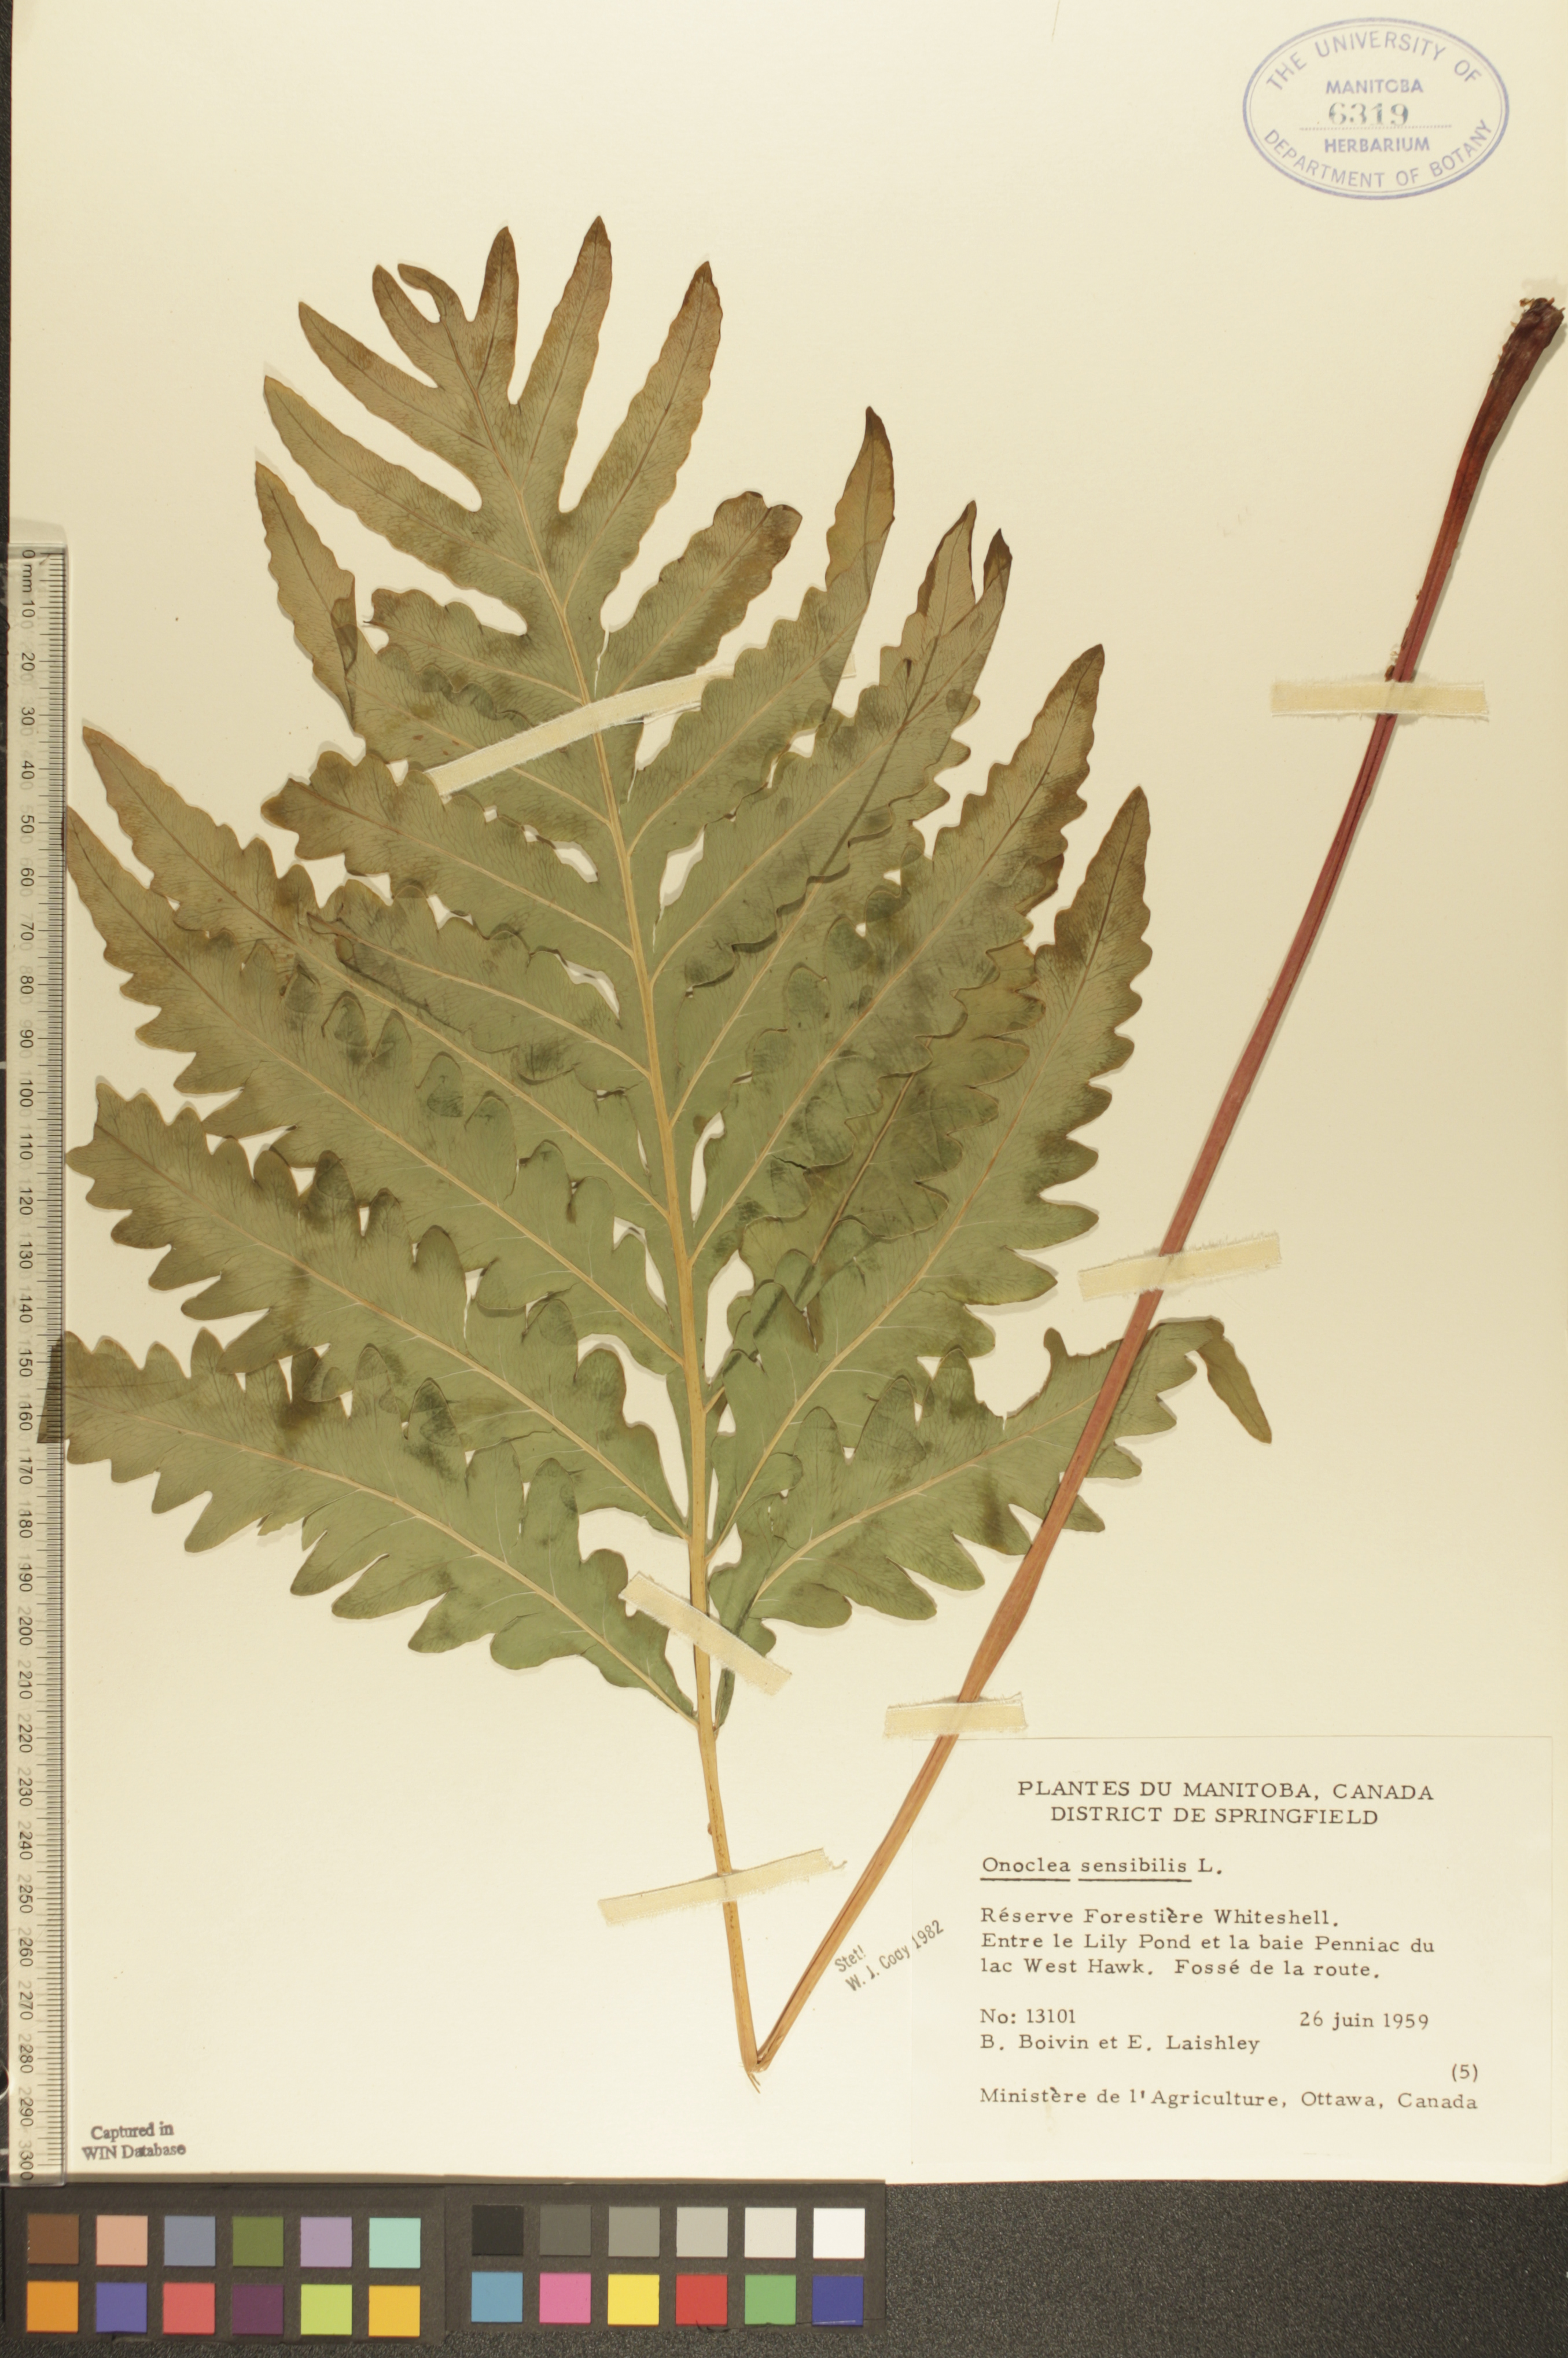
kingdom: Plantae
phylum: Tracheophyta
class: Polypodiopsida
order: Polypodiales
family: Onocleaceae
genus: Onoclea
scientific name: Onoclea sensibilis
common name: Sensitive fern
